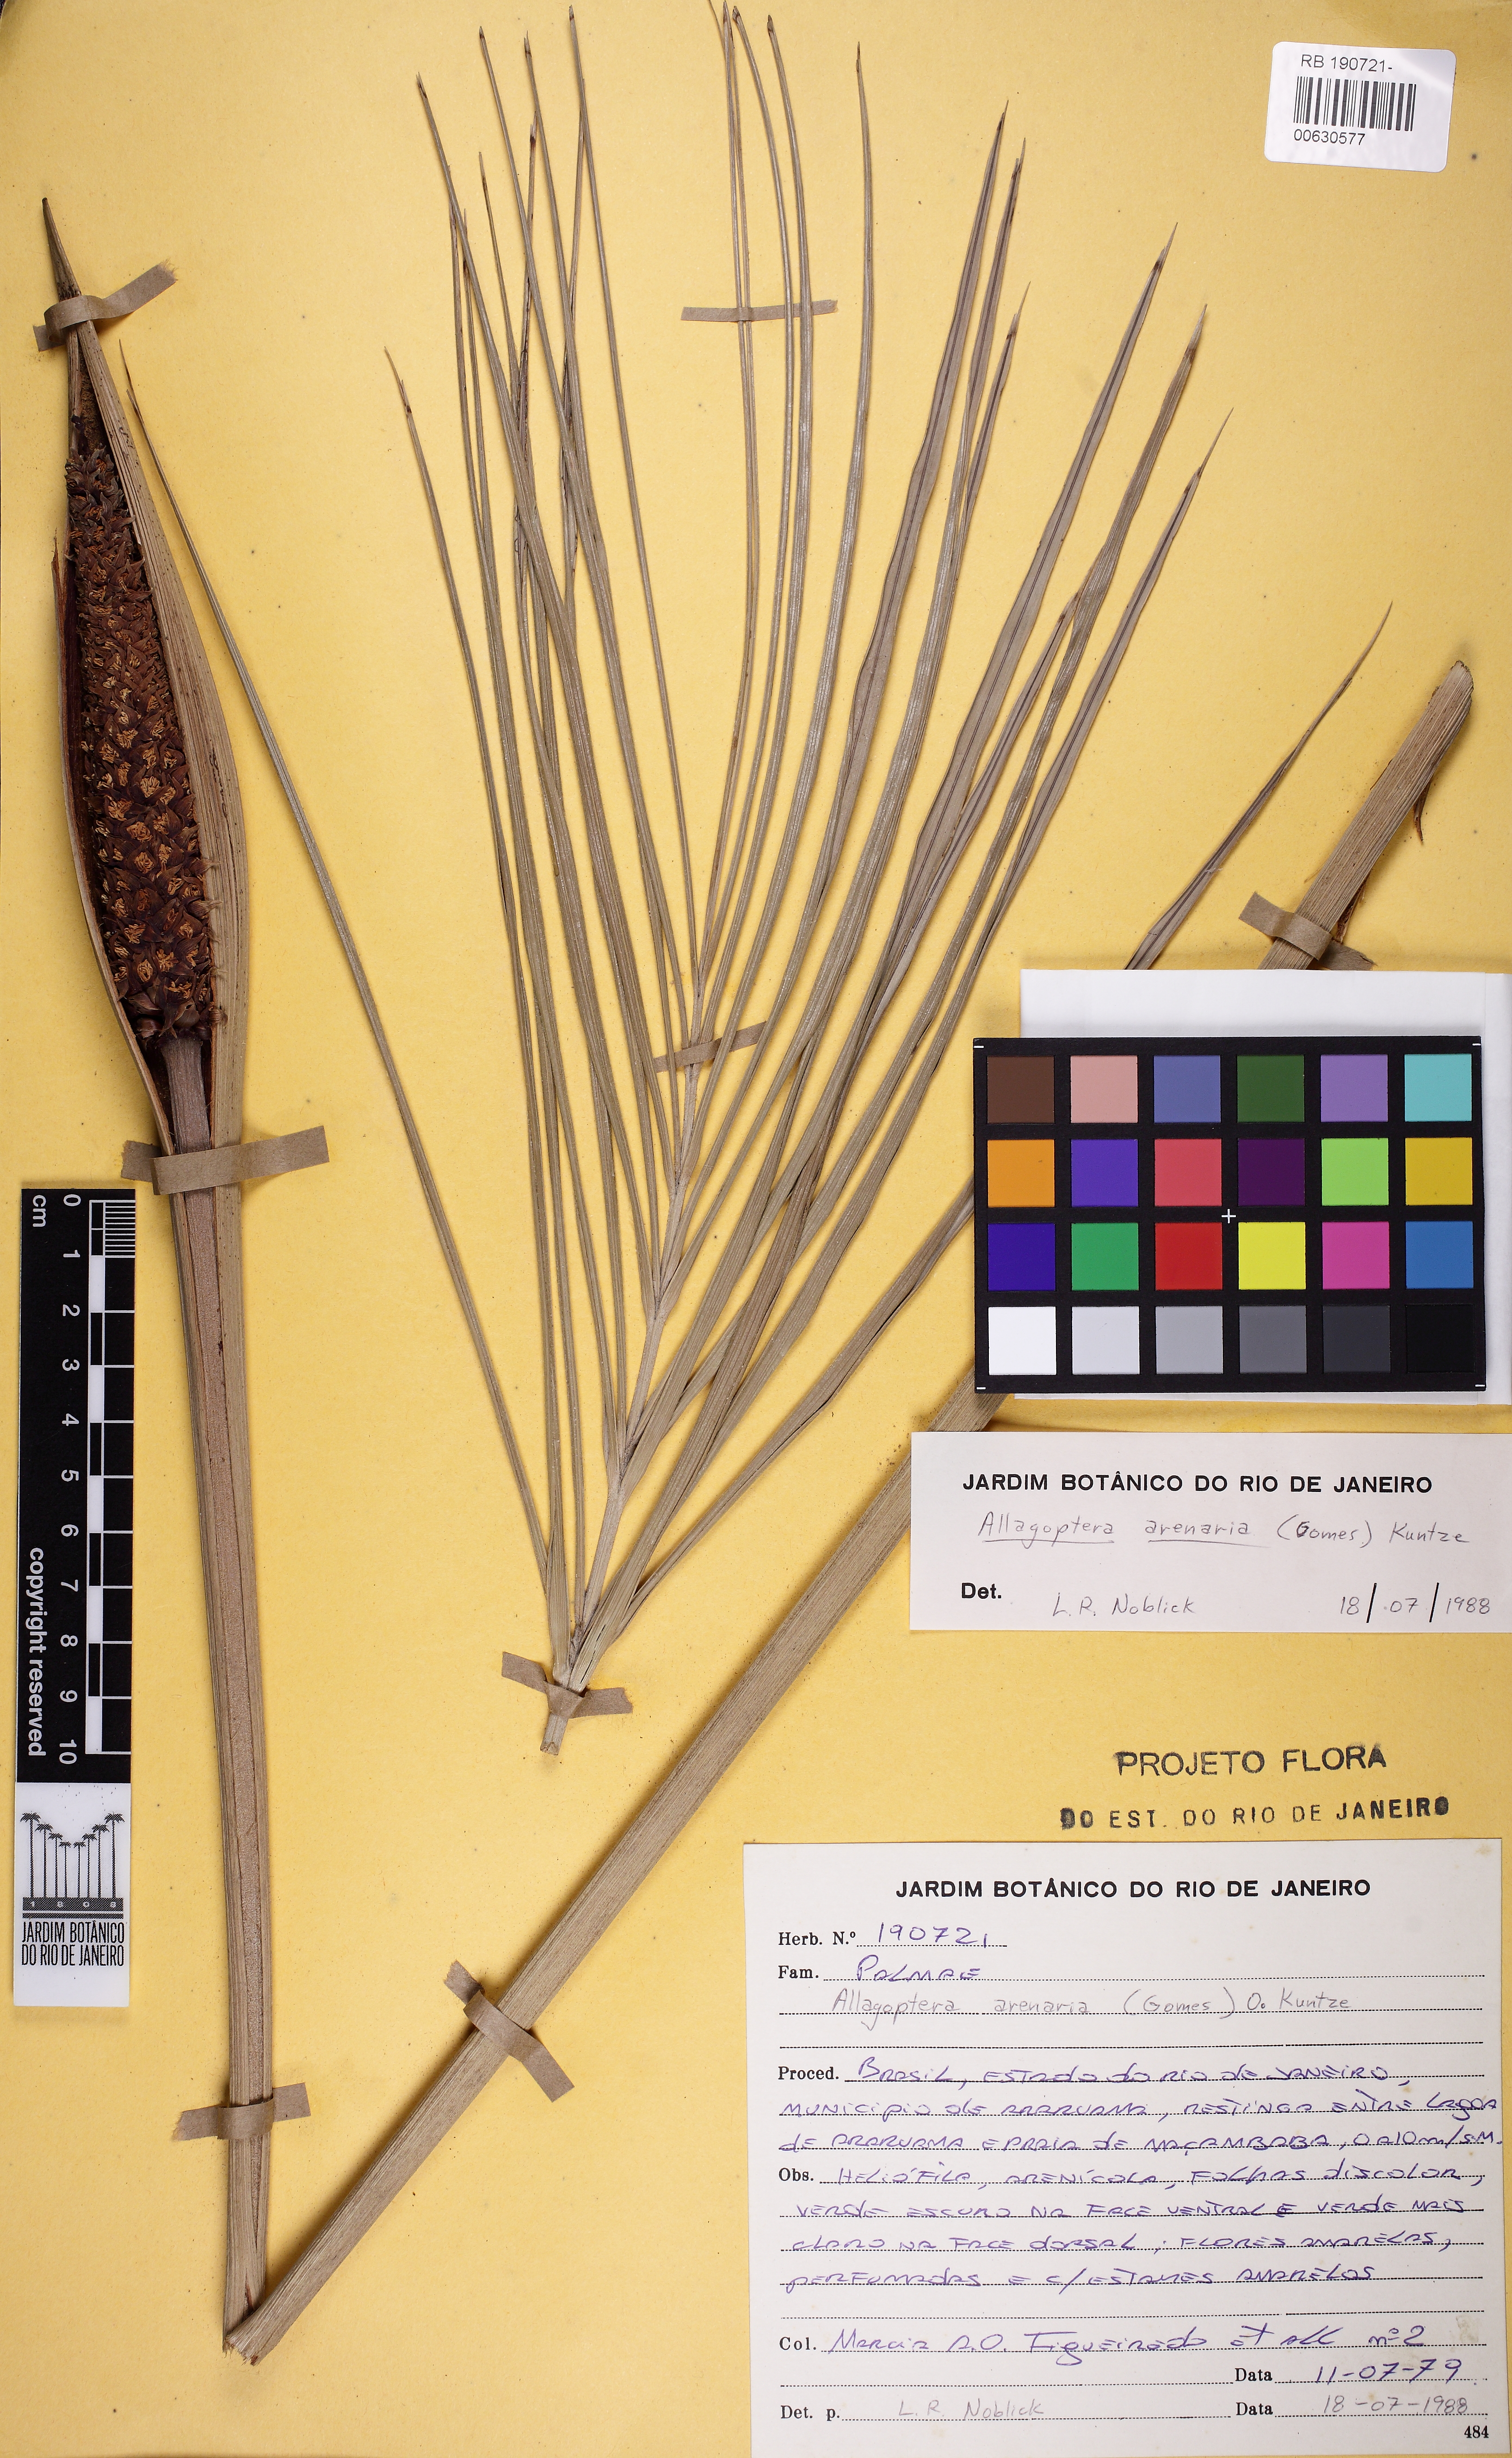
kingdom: Plantae
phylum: Tracheophyta
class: Liliopsida
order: Arecales
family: Arecaceae
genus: Allagoptera
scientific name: Allagoptera arenaria
